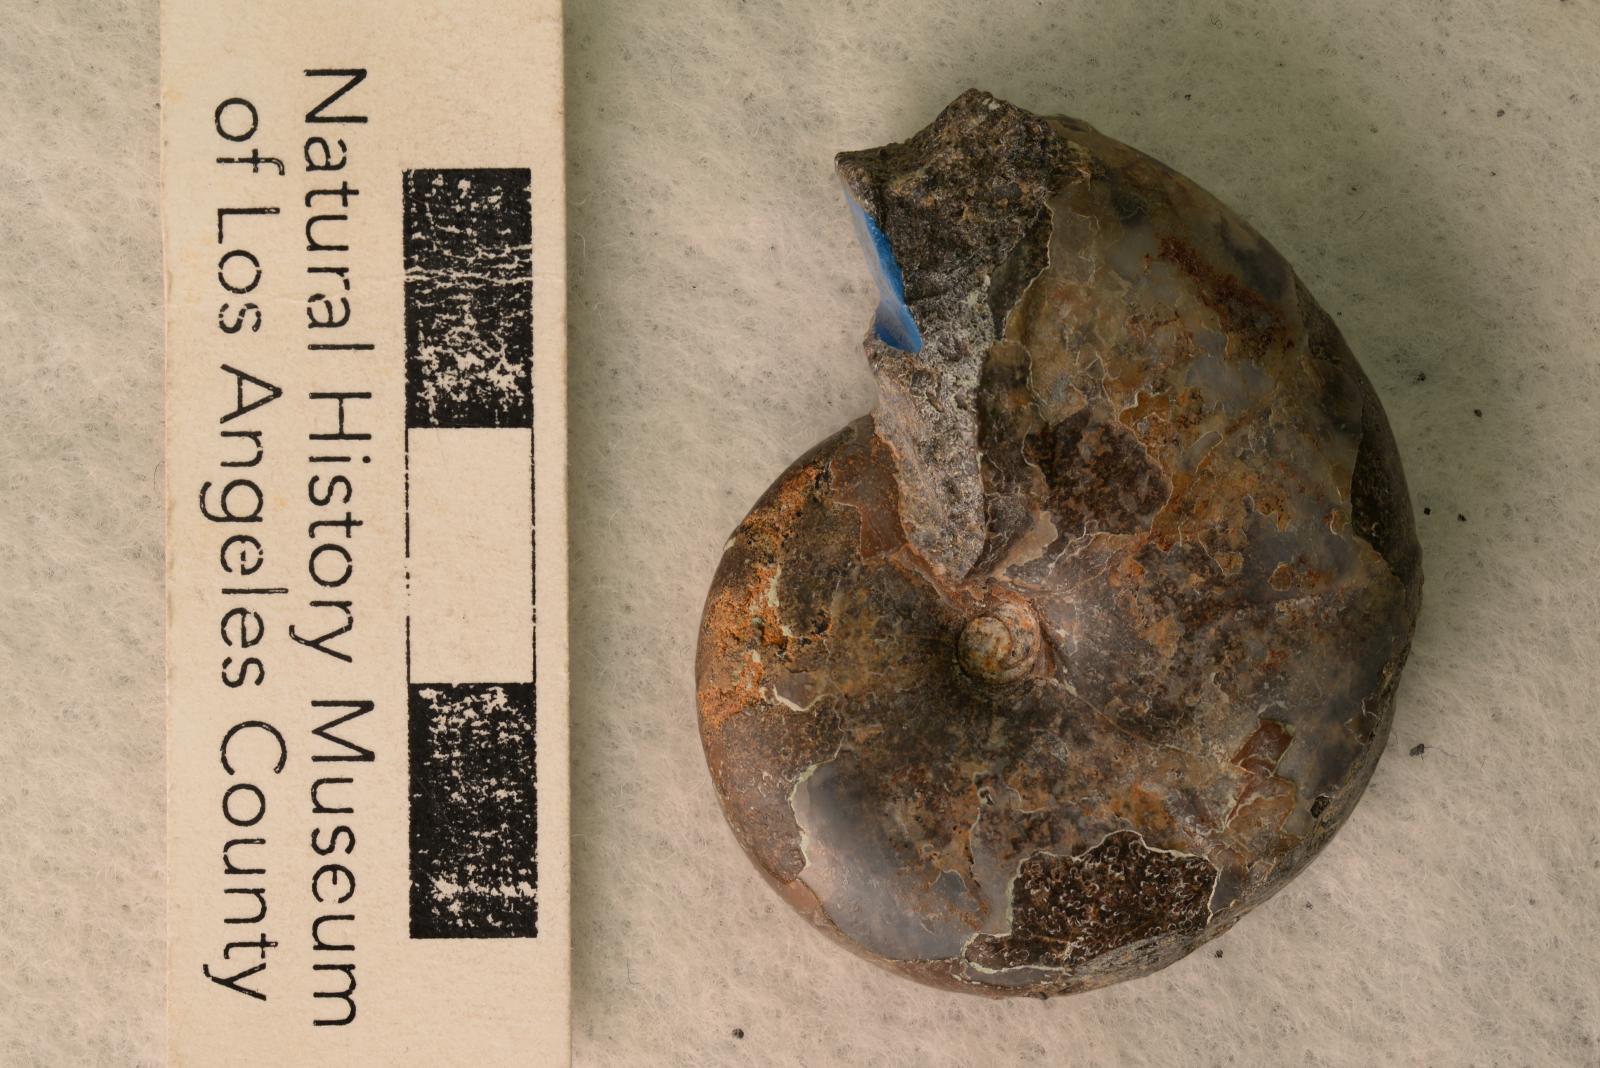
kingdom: Animalia
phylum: Mollusca
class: Cephalopoda
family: Desmoceratidae
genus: Desmoceras
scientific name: Desmoceras barryae
